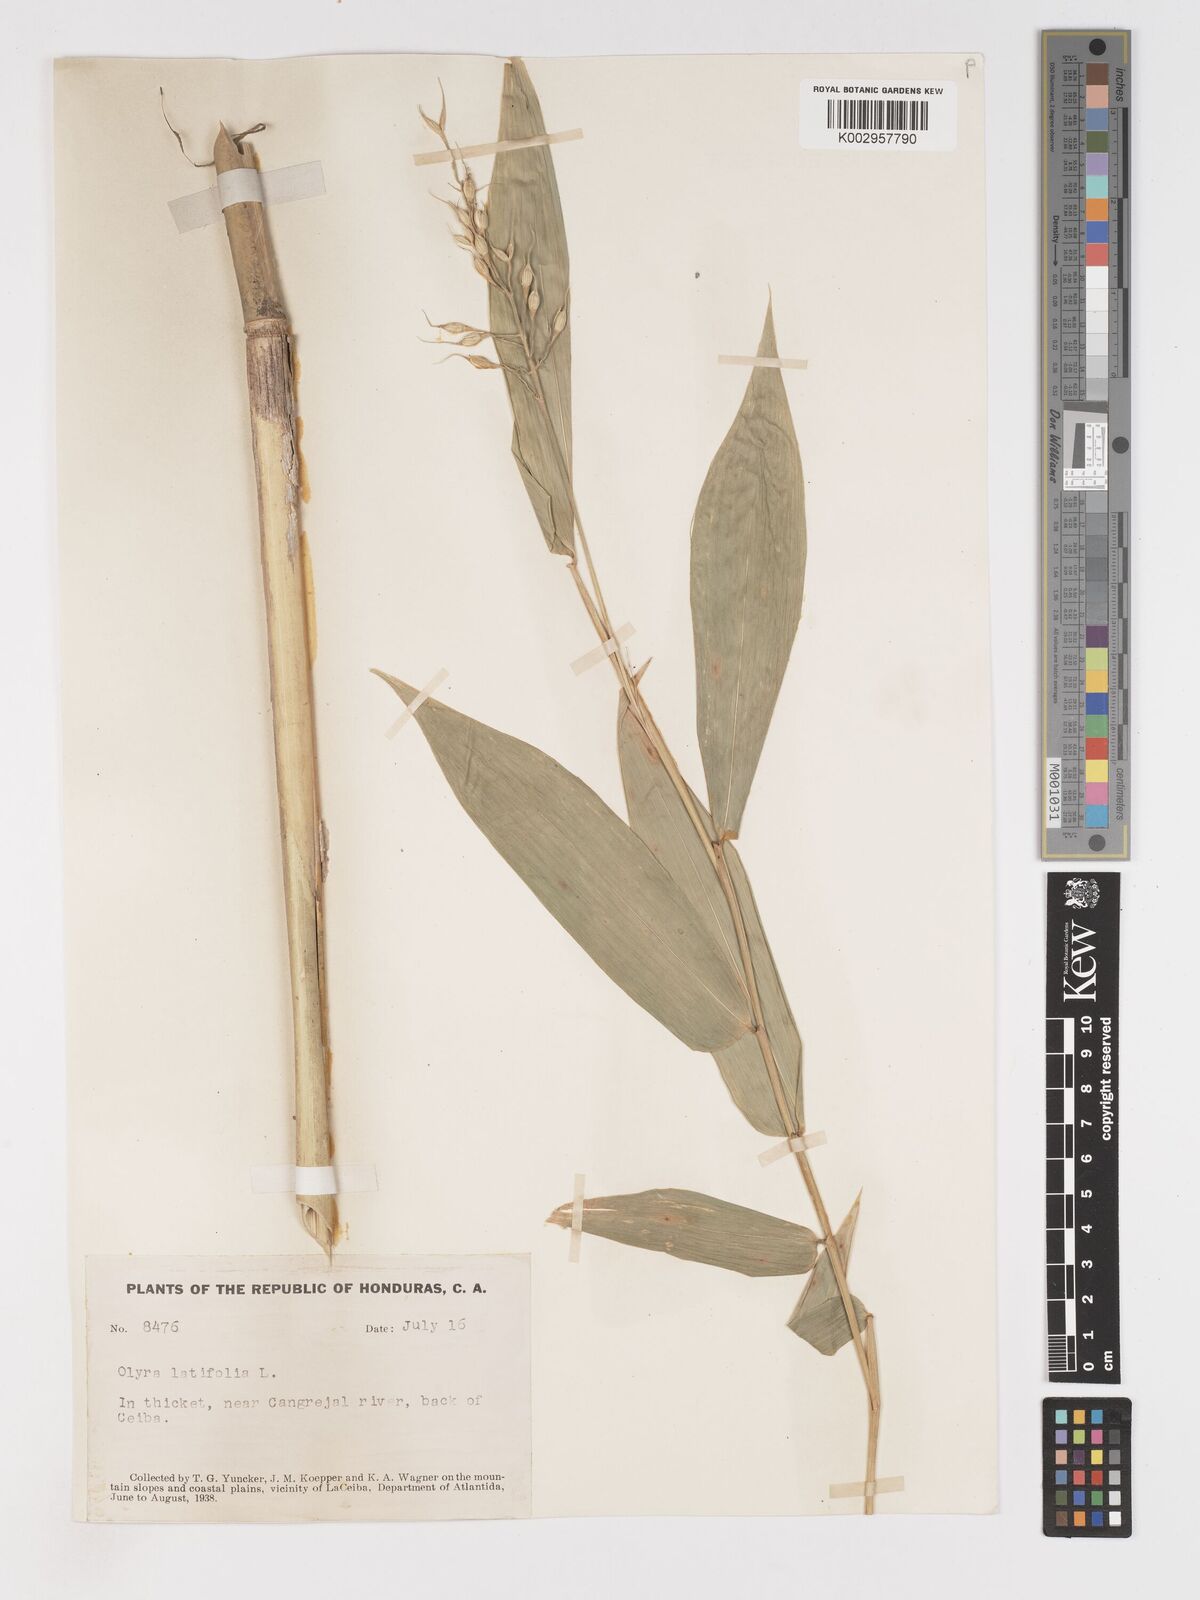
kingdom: Plantae
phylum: Tracheophyta
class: Liliopsida
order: Poales
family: Poaceae
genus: Olyra
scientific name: Olyra latifolia
